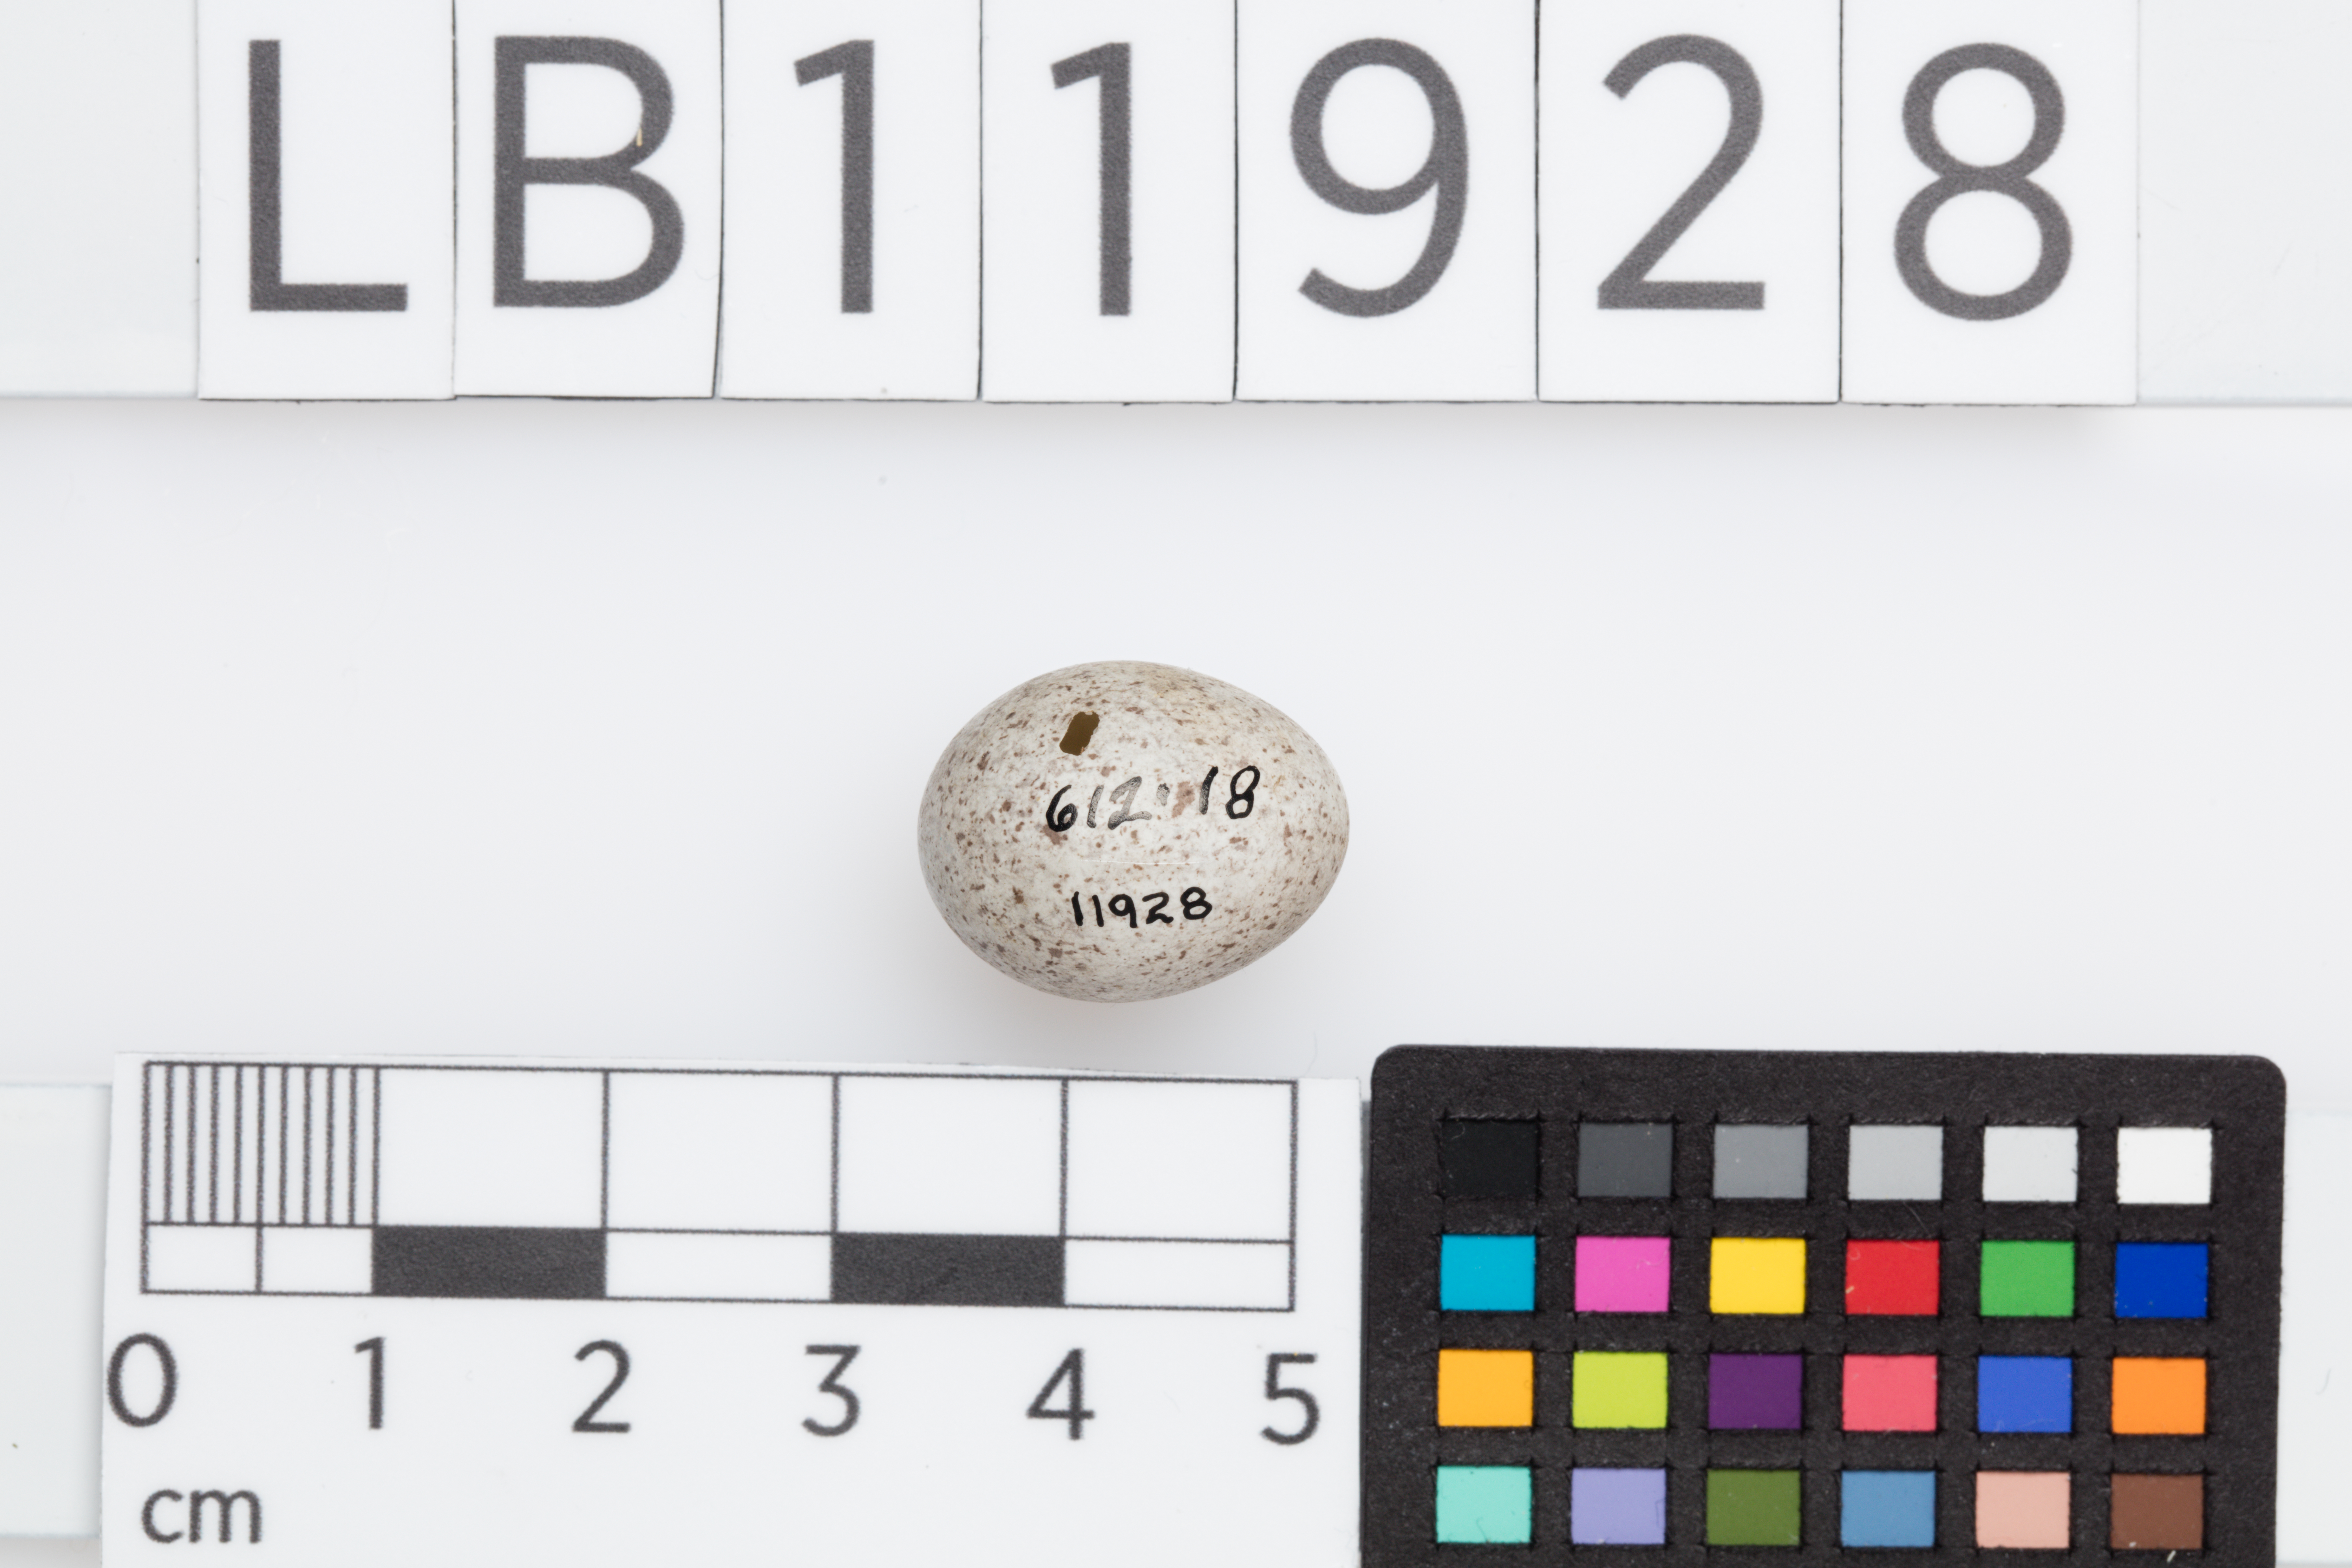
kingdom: Animalia
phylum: Chordata
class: Aves
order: Passeriformes
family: Motacillidae
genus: Motacilla
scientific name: Motacilla alba
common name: White wagtail
